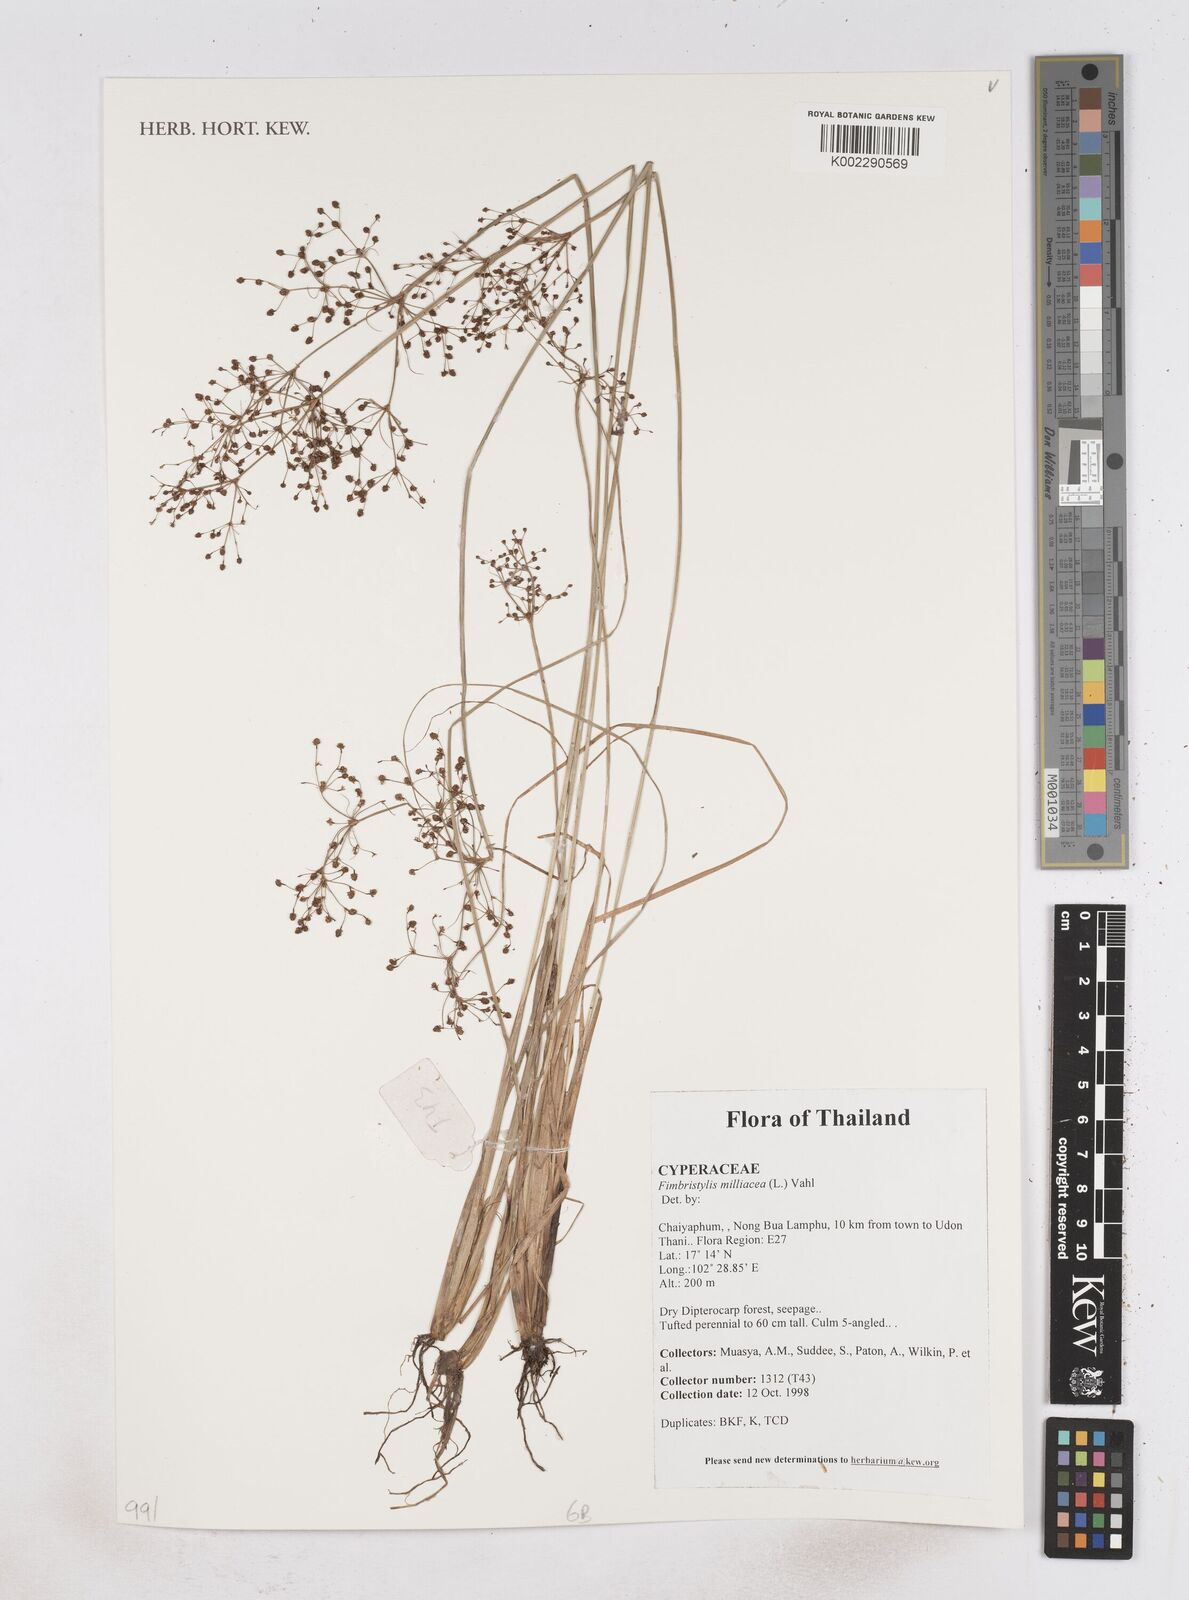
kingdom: Plantae
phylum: Tracheophyta
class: Liliopsida
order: Poales
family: Cyperaceae
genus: Fimbristylis
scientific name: Fimbristylis quinquangularis
